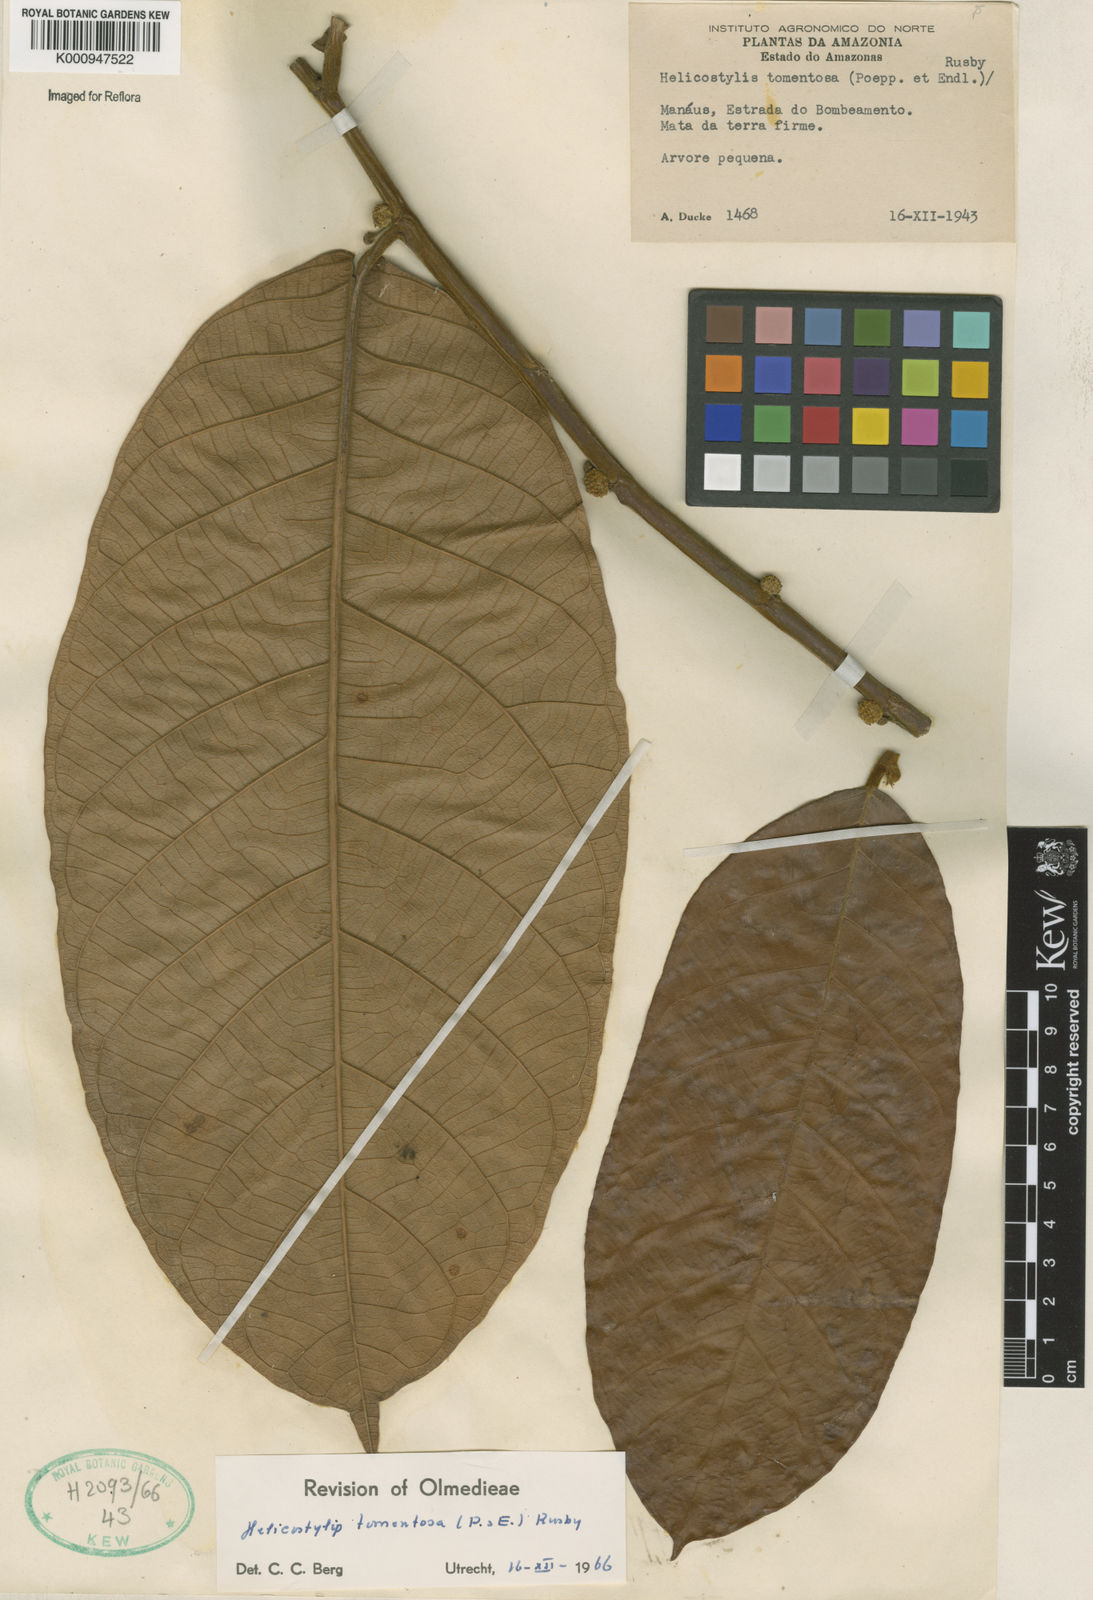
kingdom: Plantae
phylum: Tracheophyta
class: Magnoliopsida
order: Rosales
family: Moraceae
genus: Helicostylis
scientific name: Helicostylis
